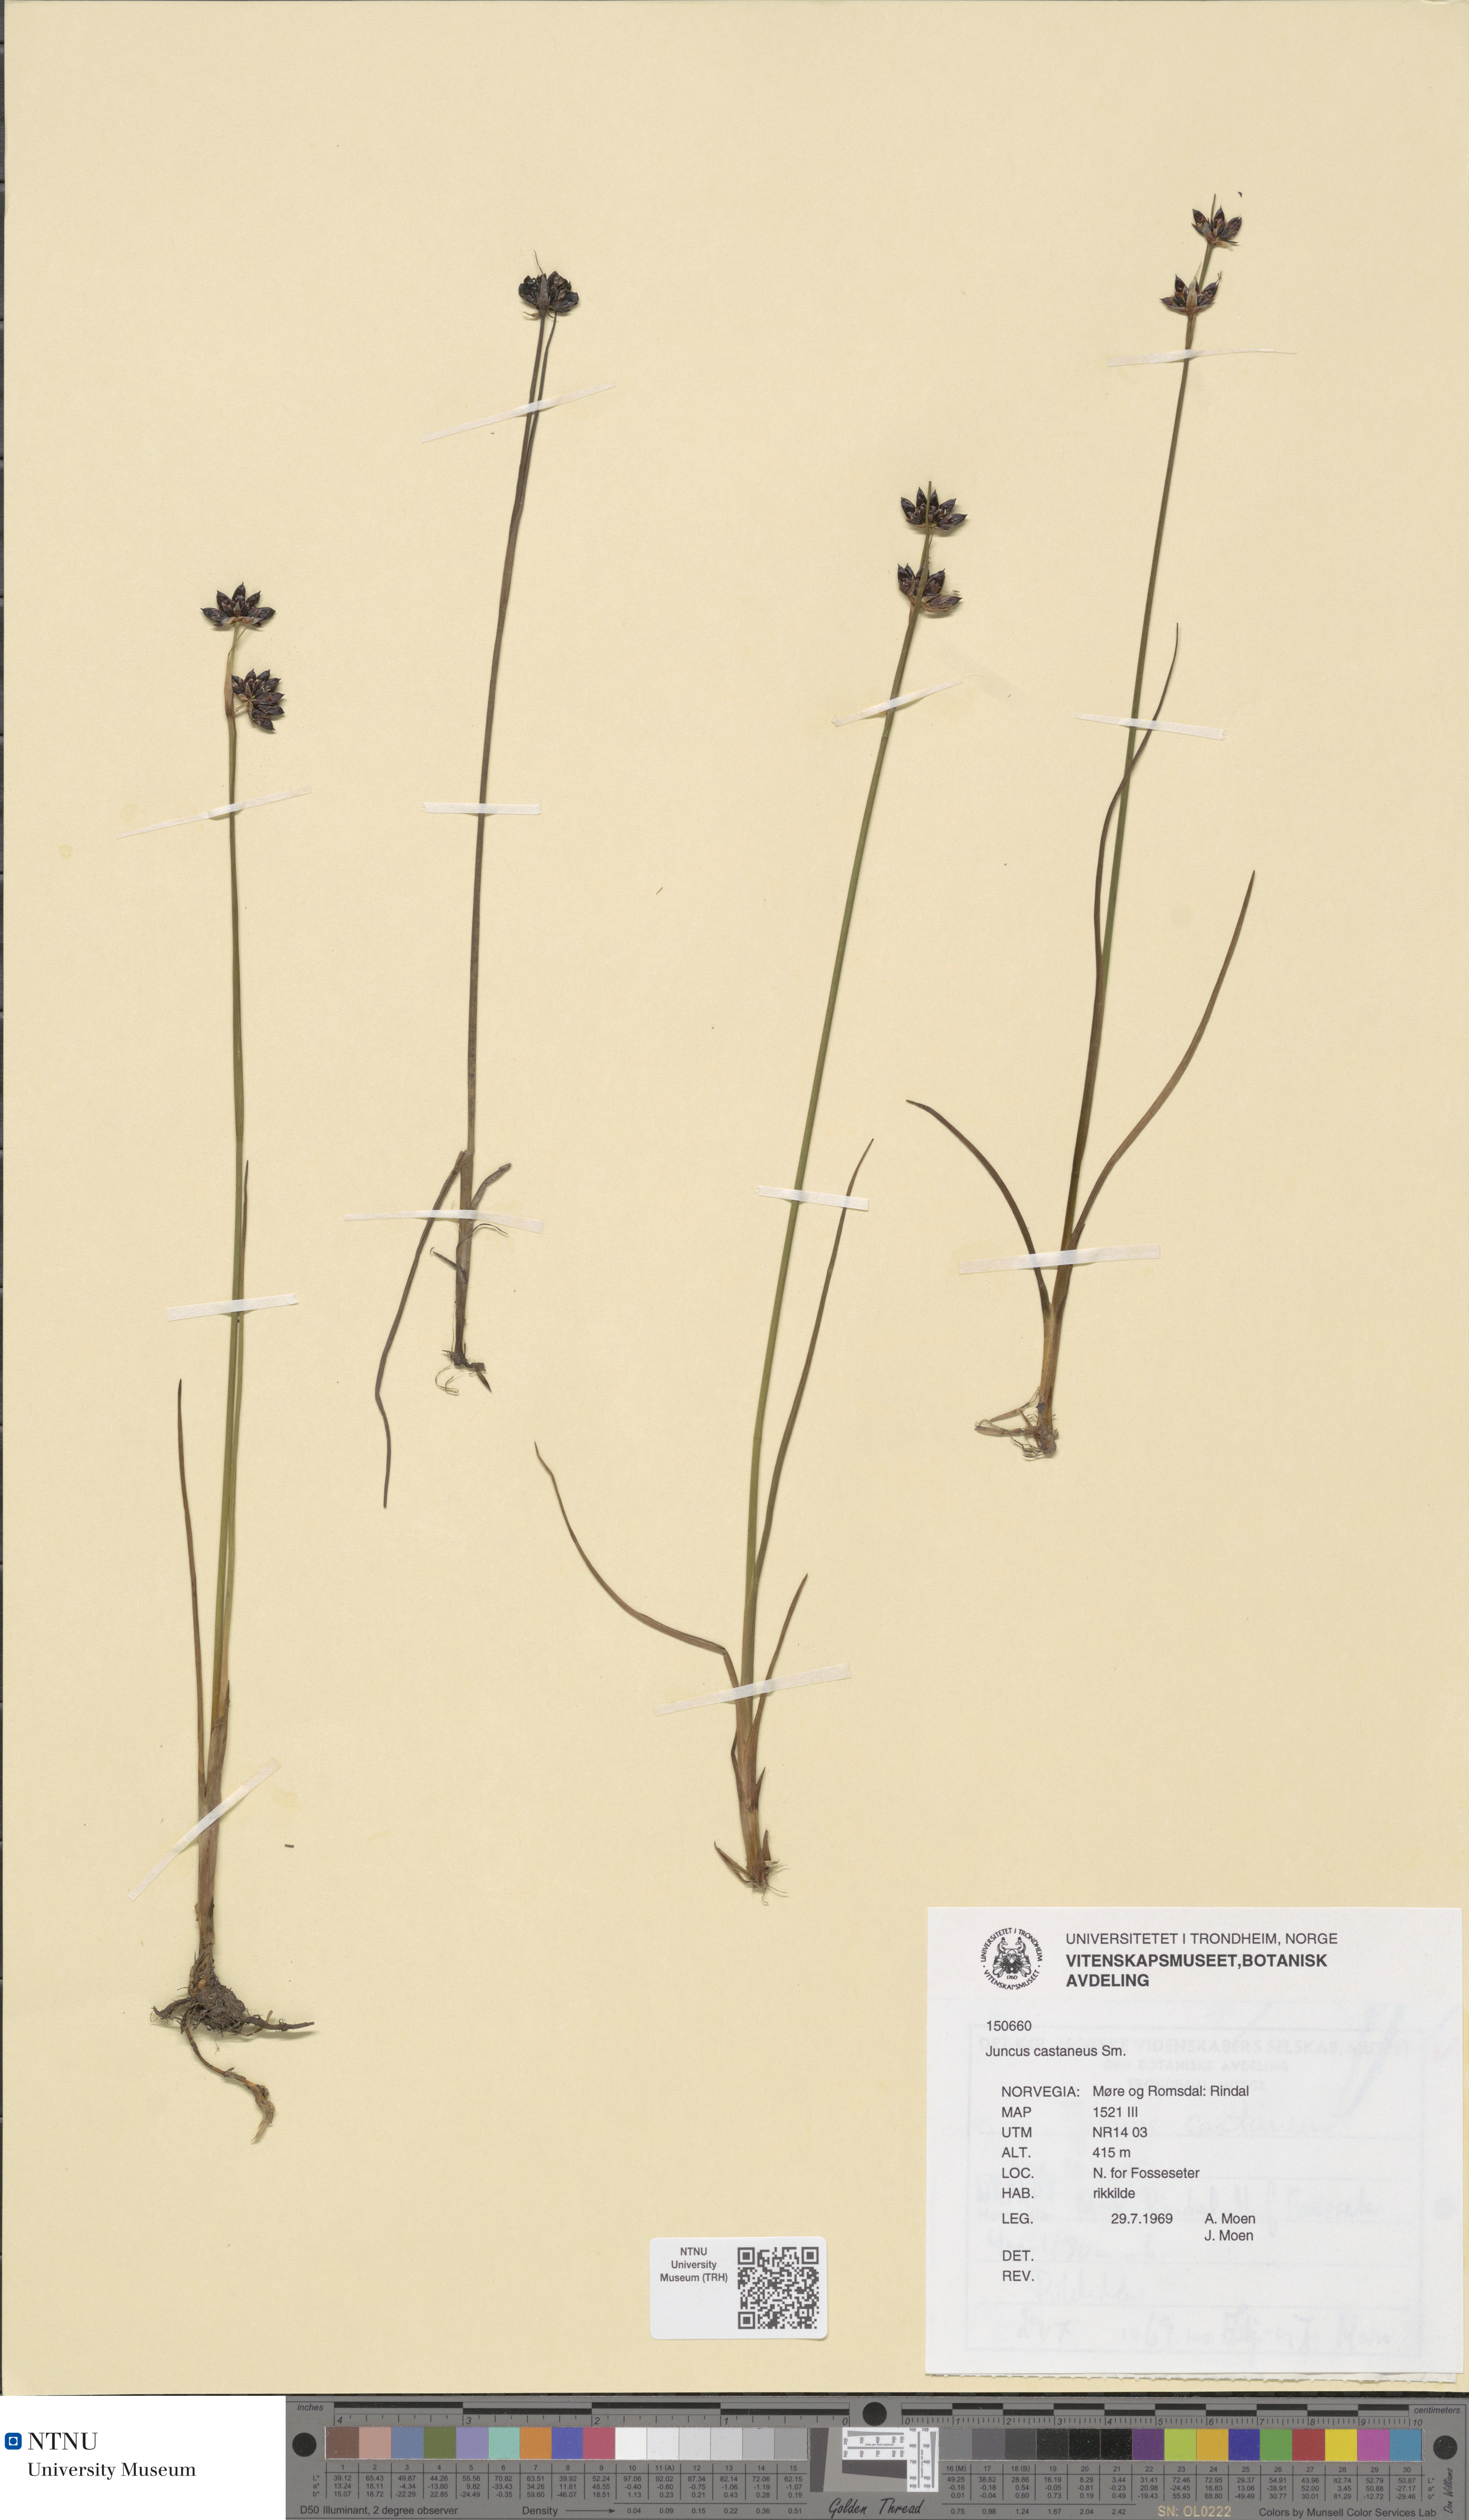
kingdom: Plantae
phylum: Tracheophyta
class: Liliopsida
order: Poales
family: Juncaceae
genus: Juncus
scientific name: Juncus castaneus
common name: Chestnut rush
